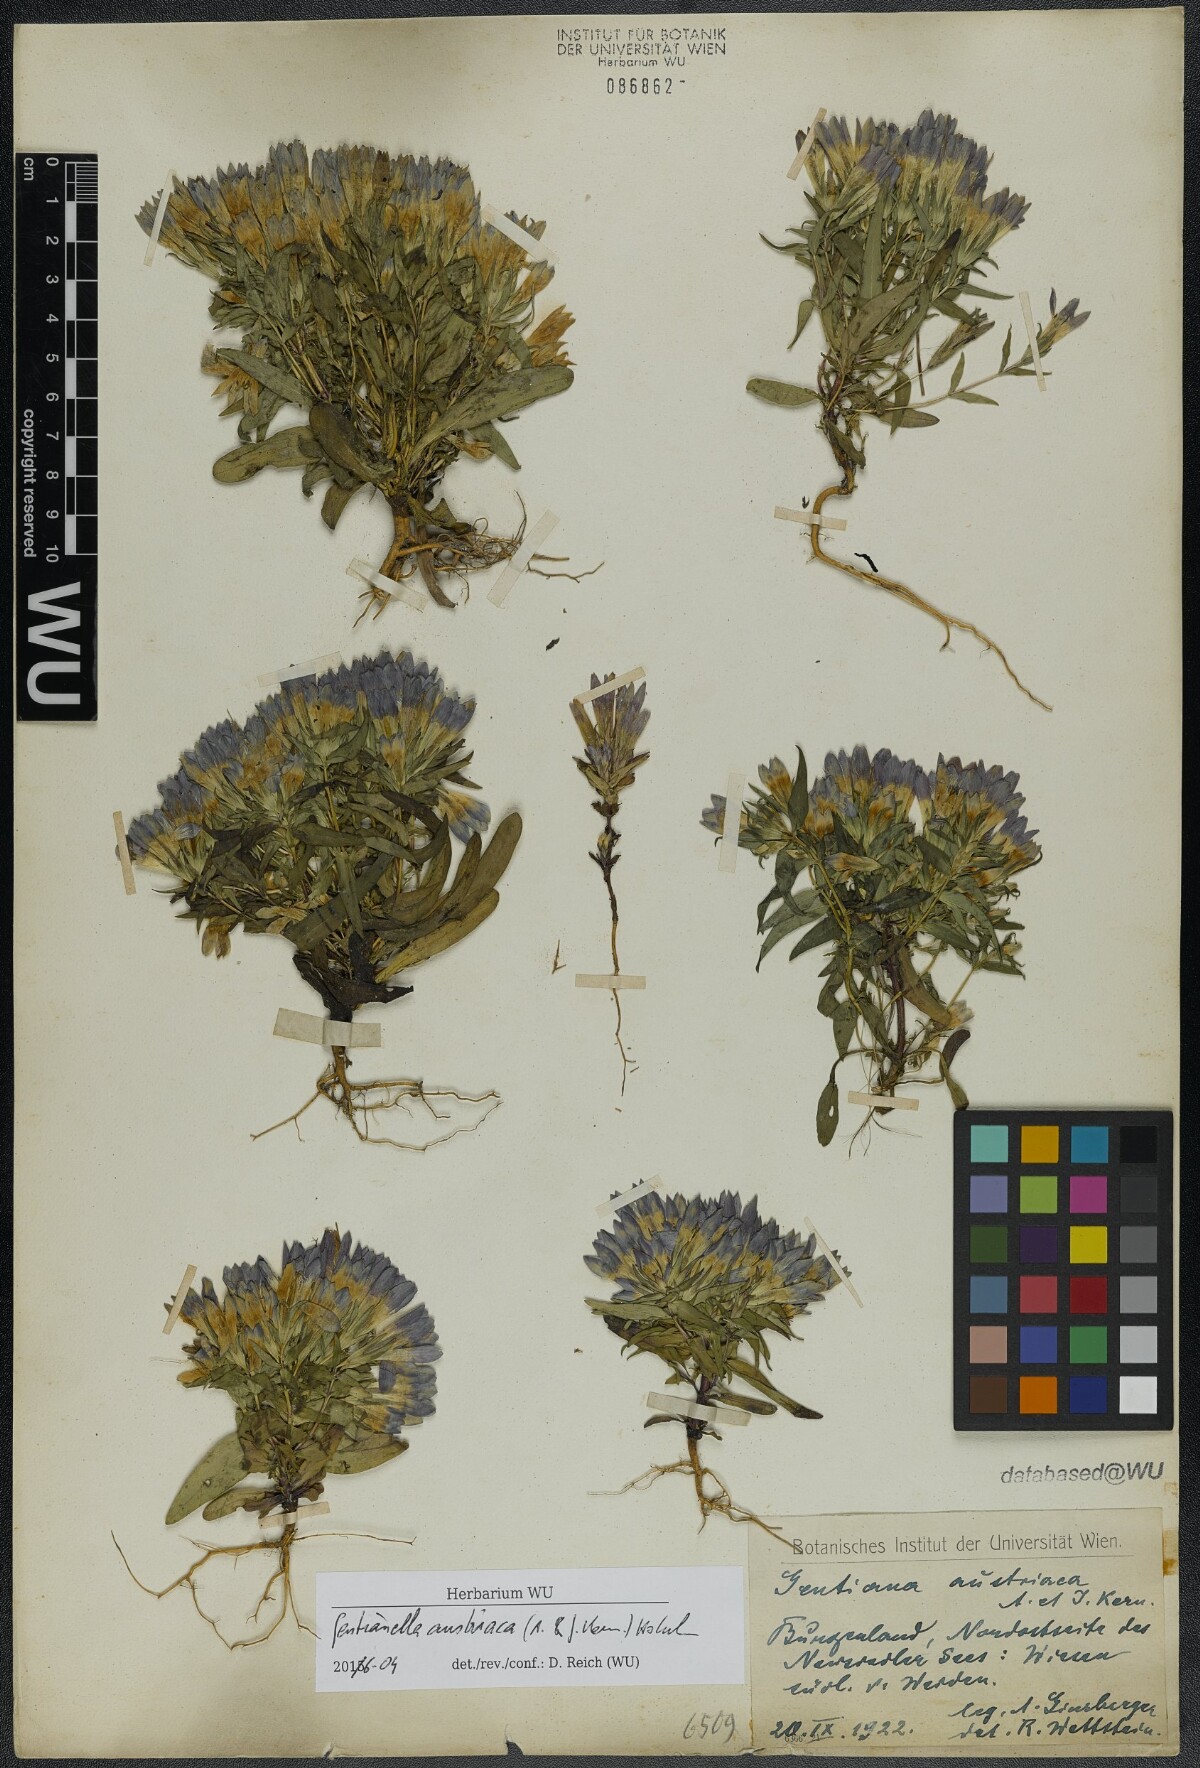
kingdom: Plantae
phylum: Tracheophyta
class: Magnoliopsida
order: Gentianales
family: Gentianaceae
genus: Gentianella
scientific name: Gentianella austriaca
